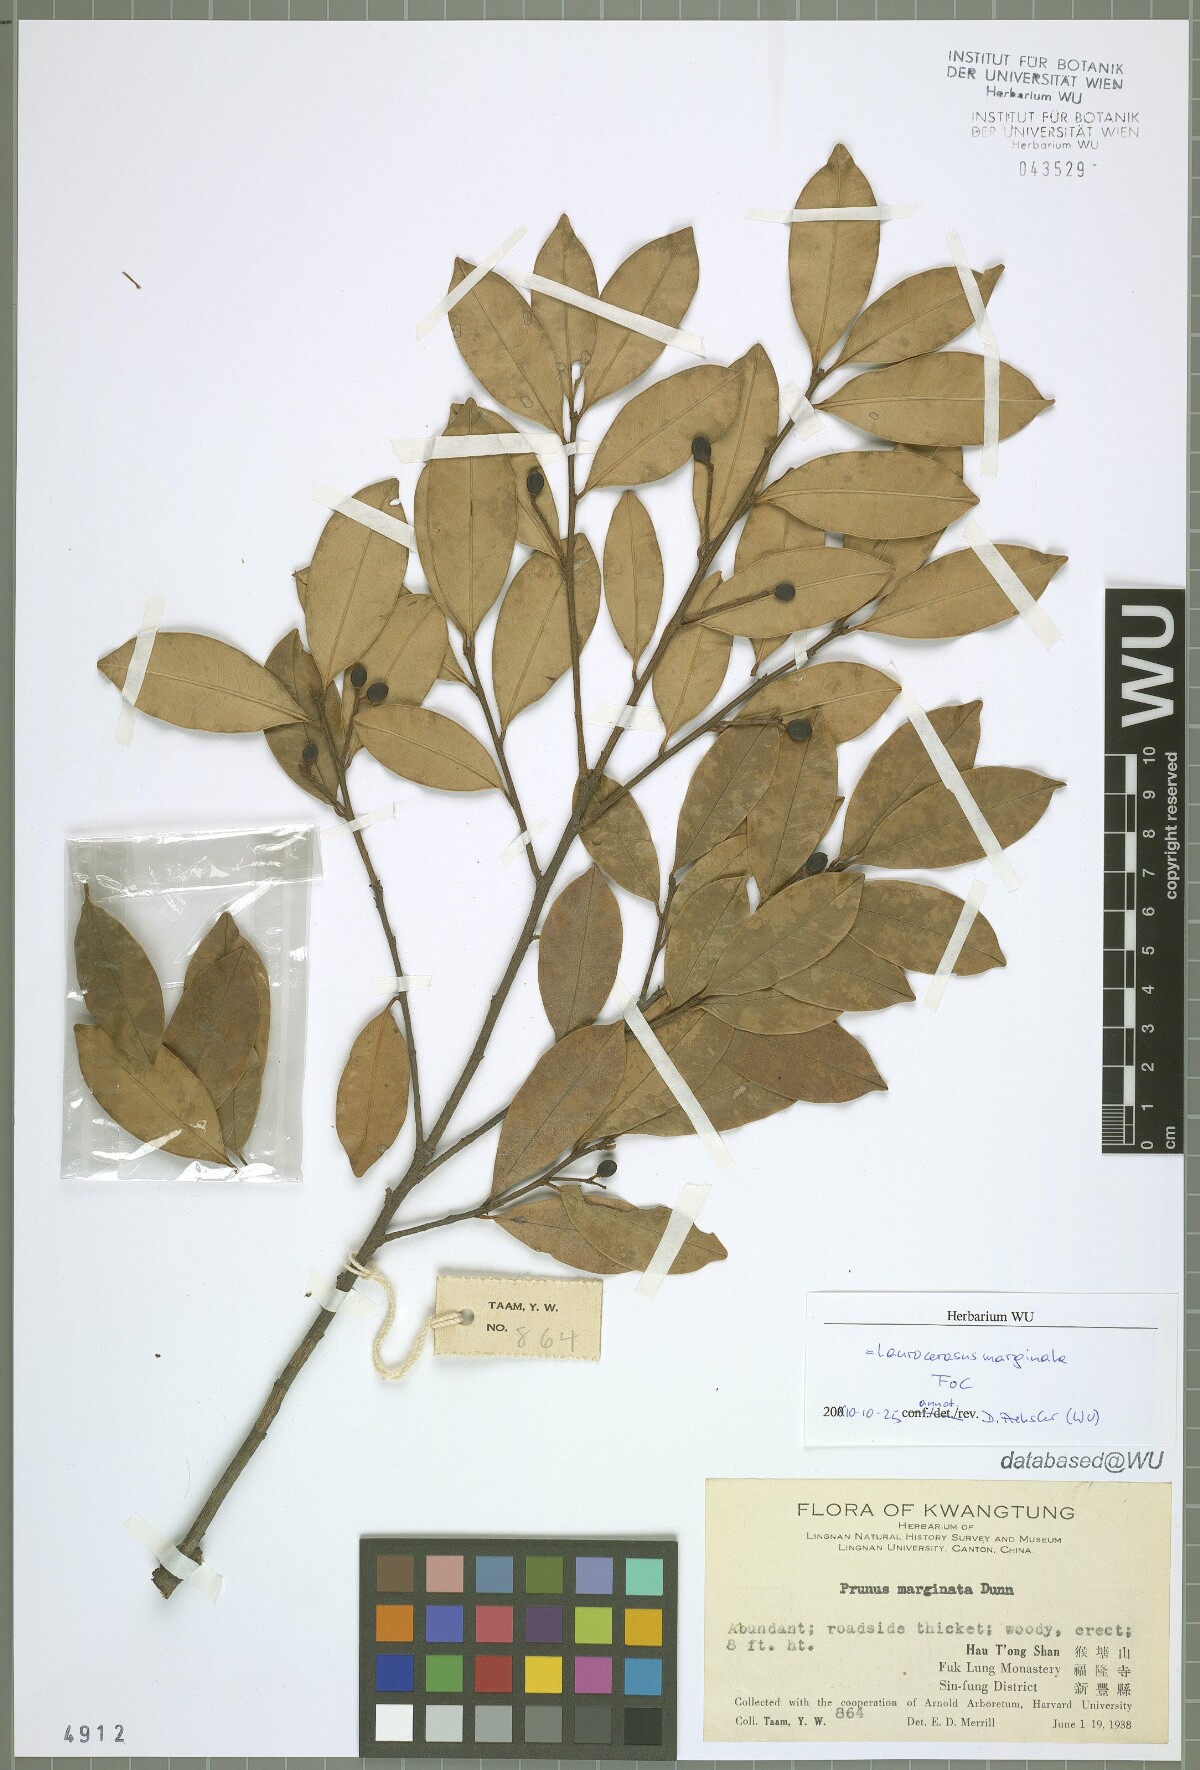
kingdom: Plantae
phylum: Tracheophyta
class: Magnoliopsida
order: Rosales
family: Rosaceae
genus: Prunus
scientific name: Prunus spinulosa
